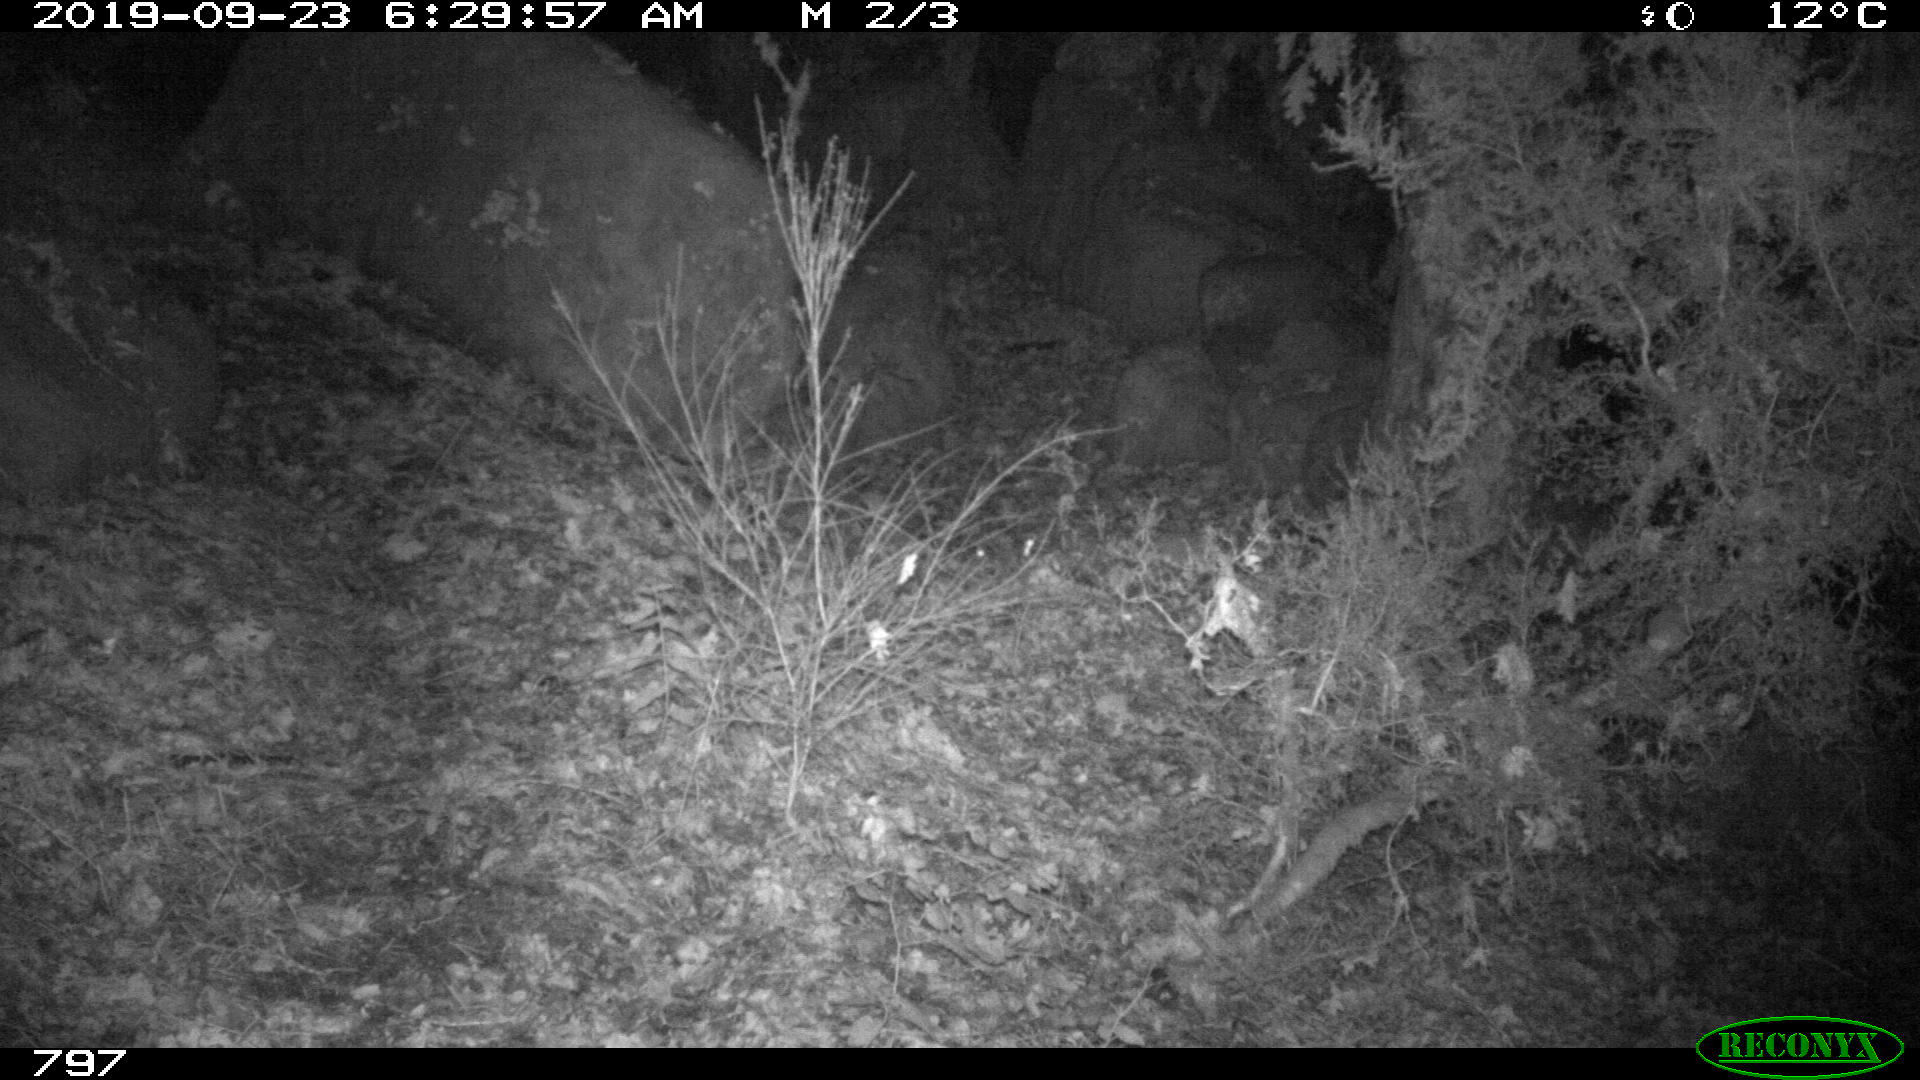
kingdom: Animalia
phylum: Chordata
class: Mammalia
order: Artiodactyla
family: Suidae
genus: Sus
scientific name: Sus scrofa
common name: Wild boar
